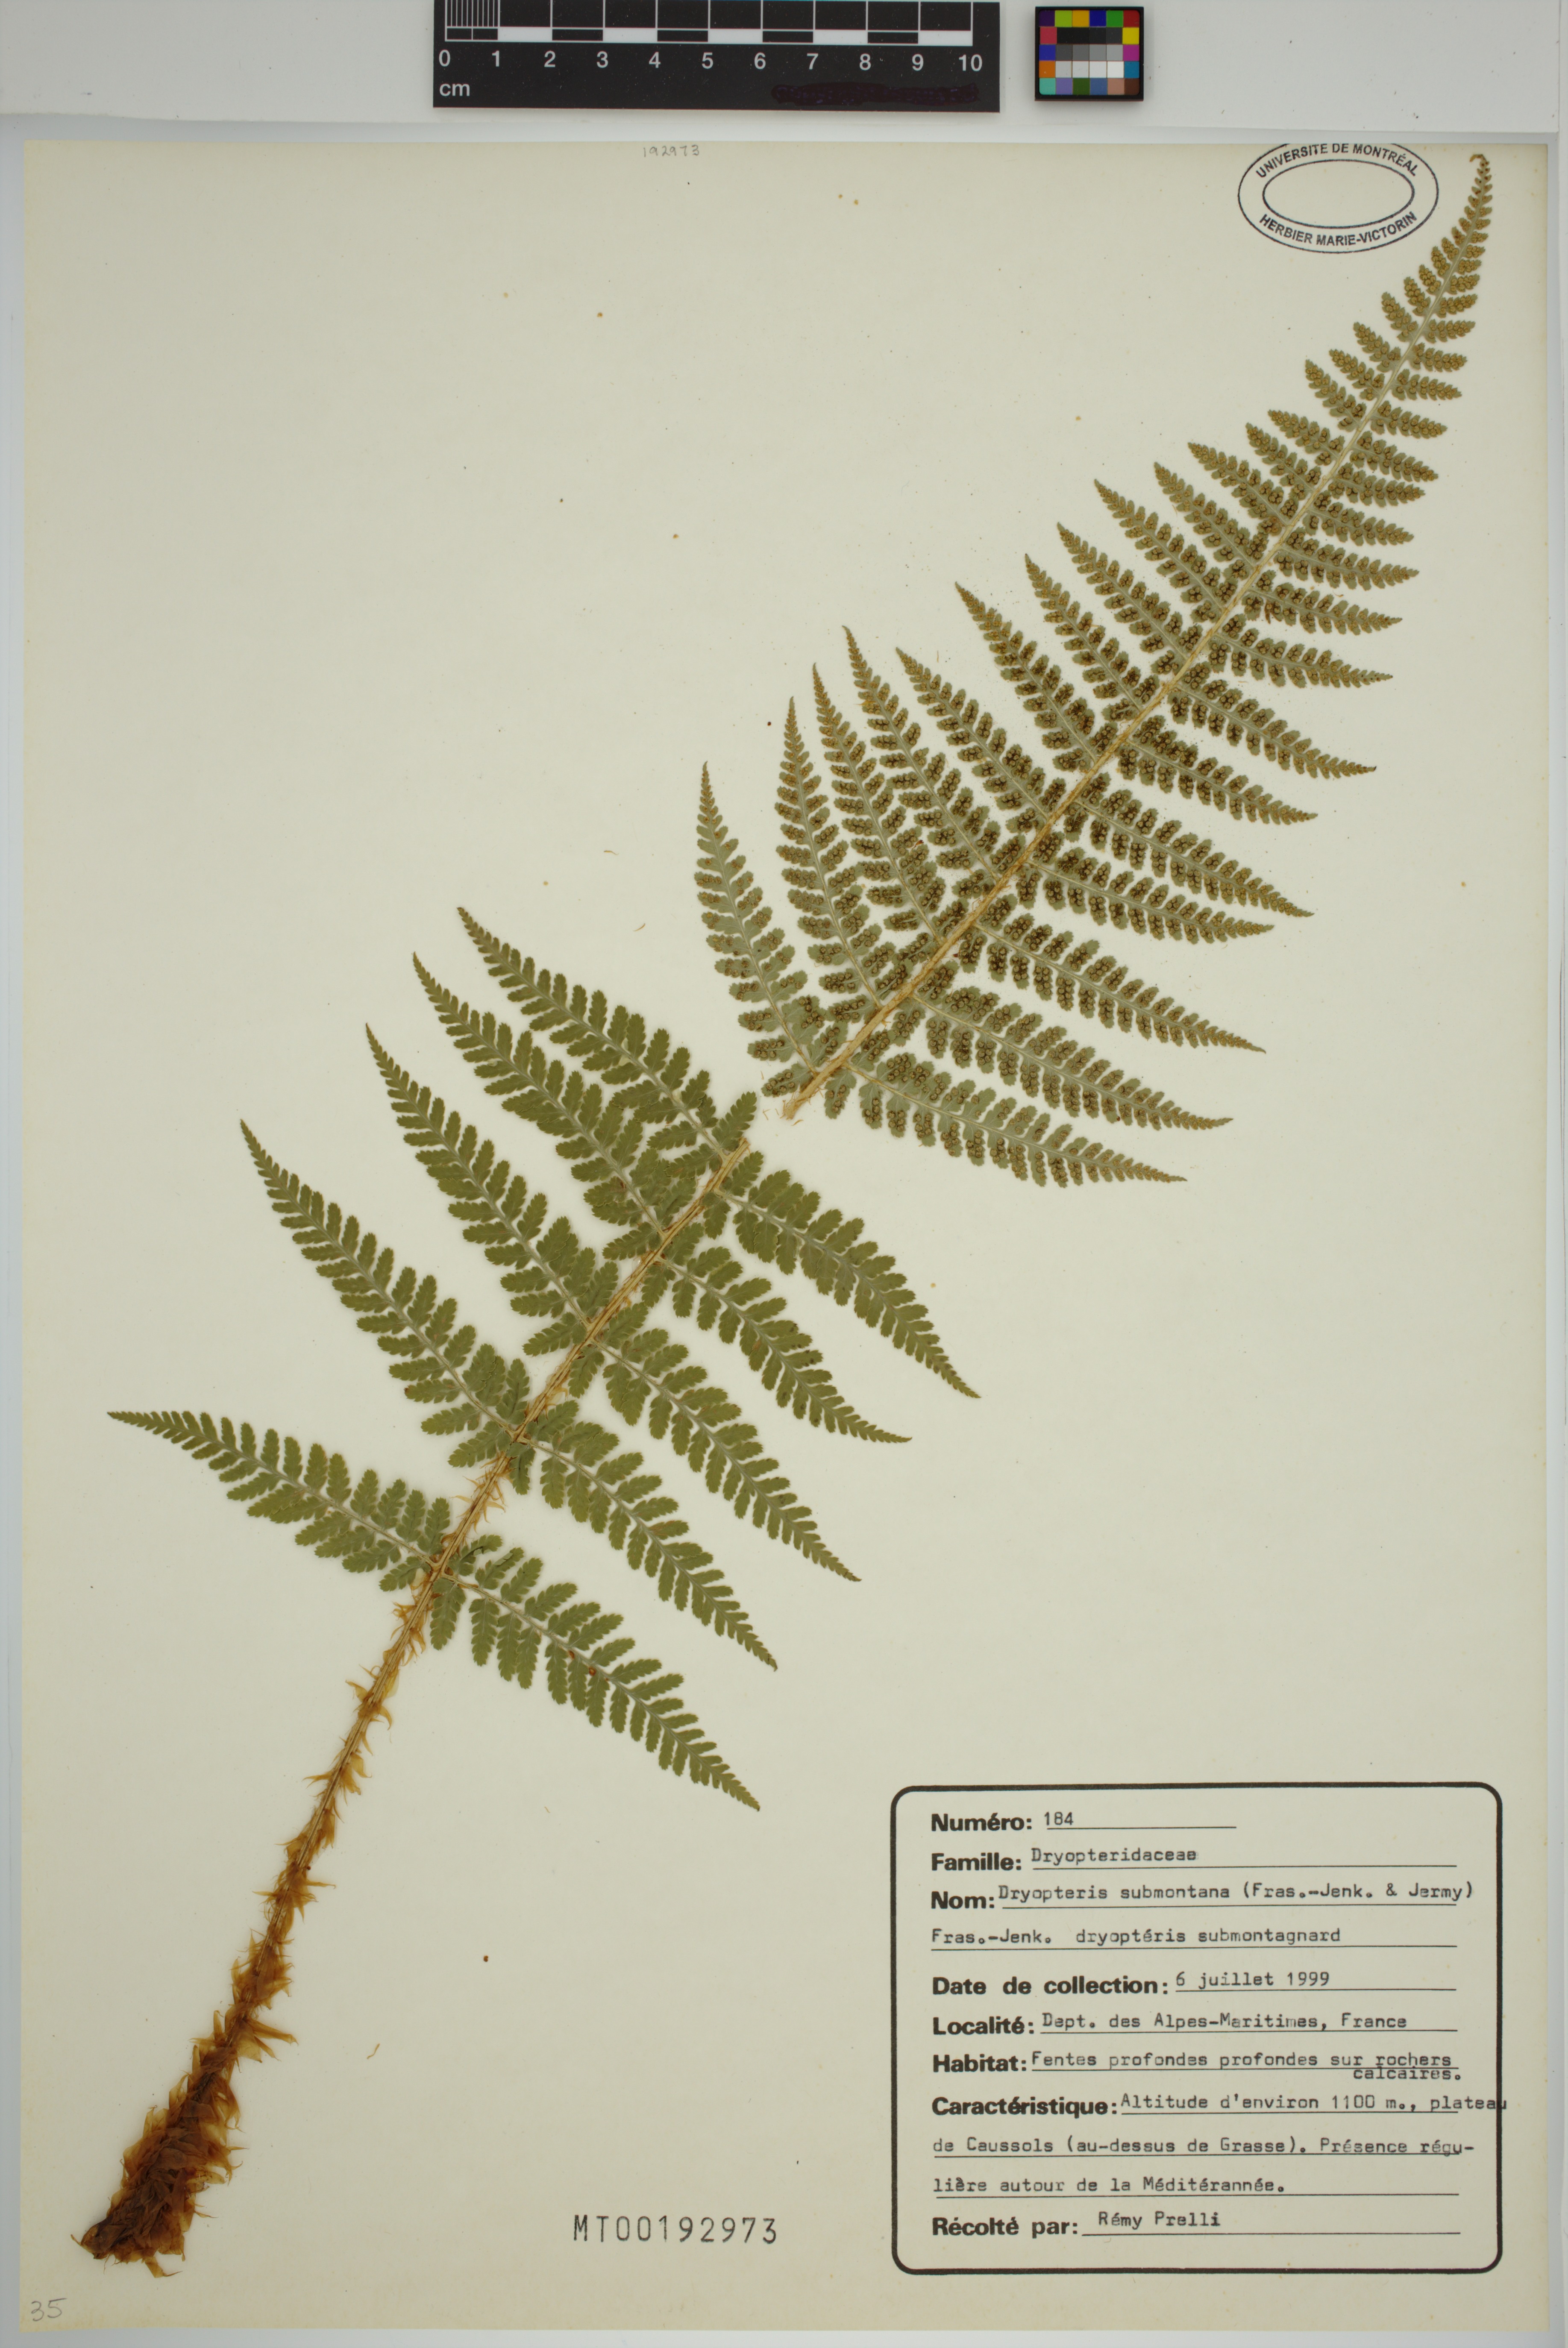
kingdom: Plantae
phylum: Tracheophyta
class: Polypodiopsida
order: Polypodiales
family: Dryopteridaceae
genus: Dryopteris
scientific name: Dryopteris mindshelkensis
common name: Limestone wood fern
